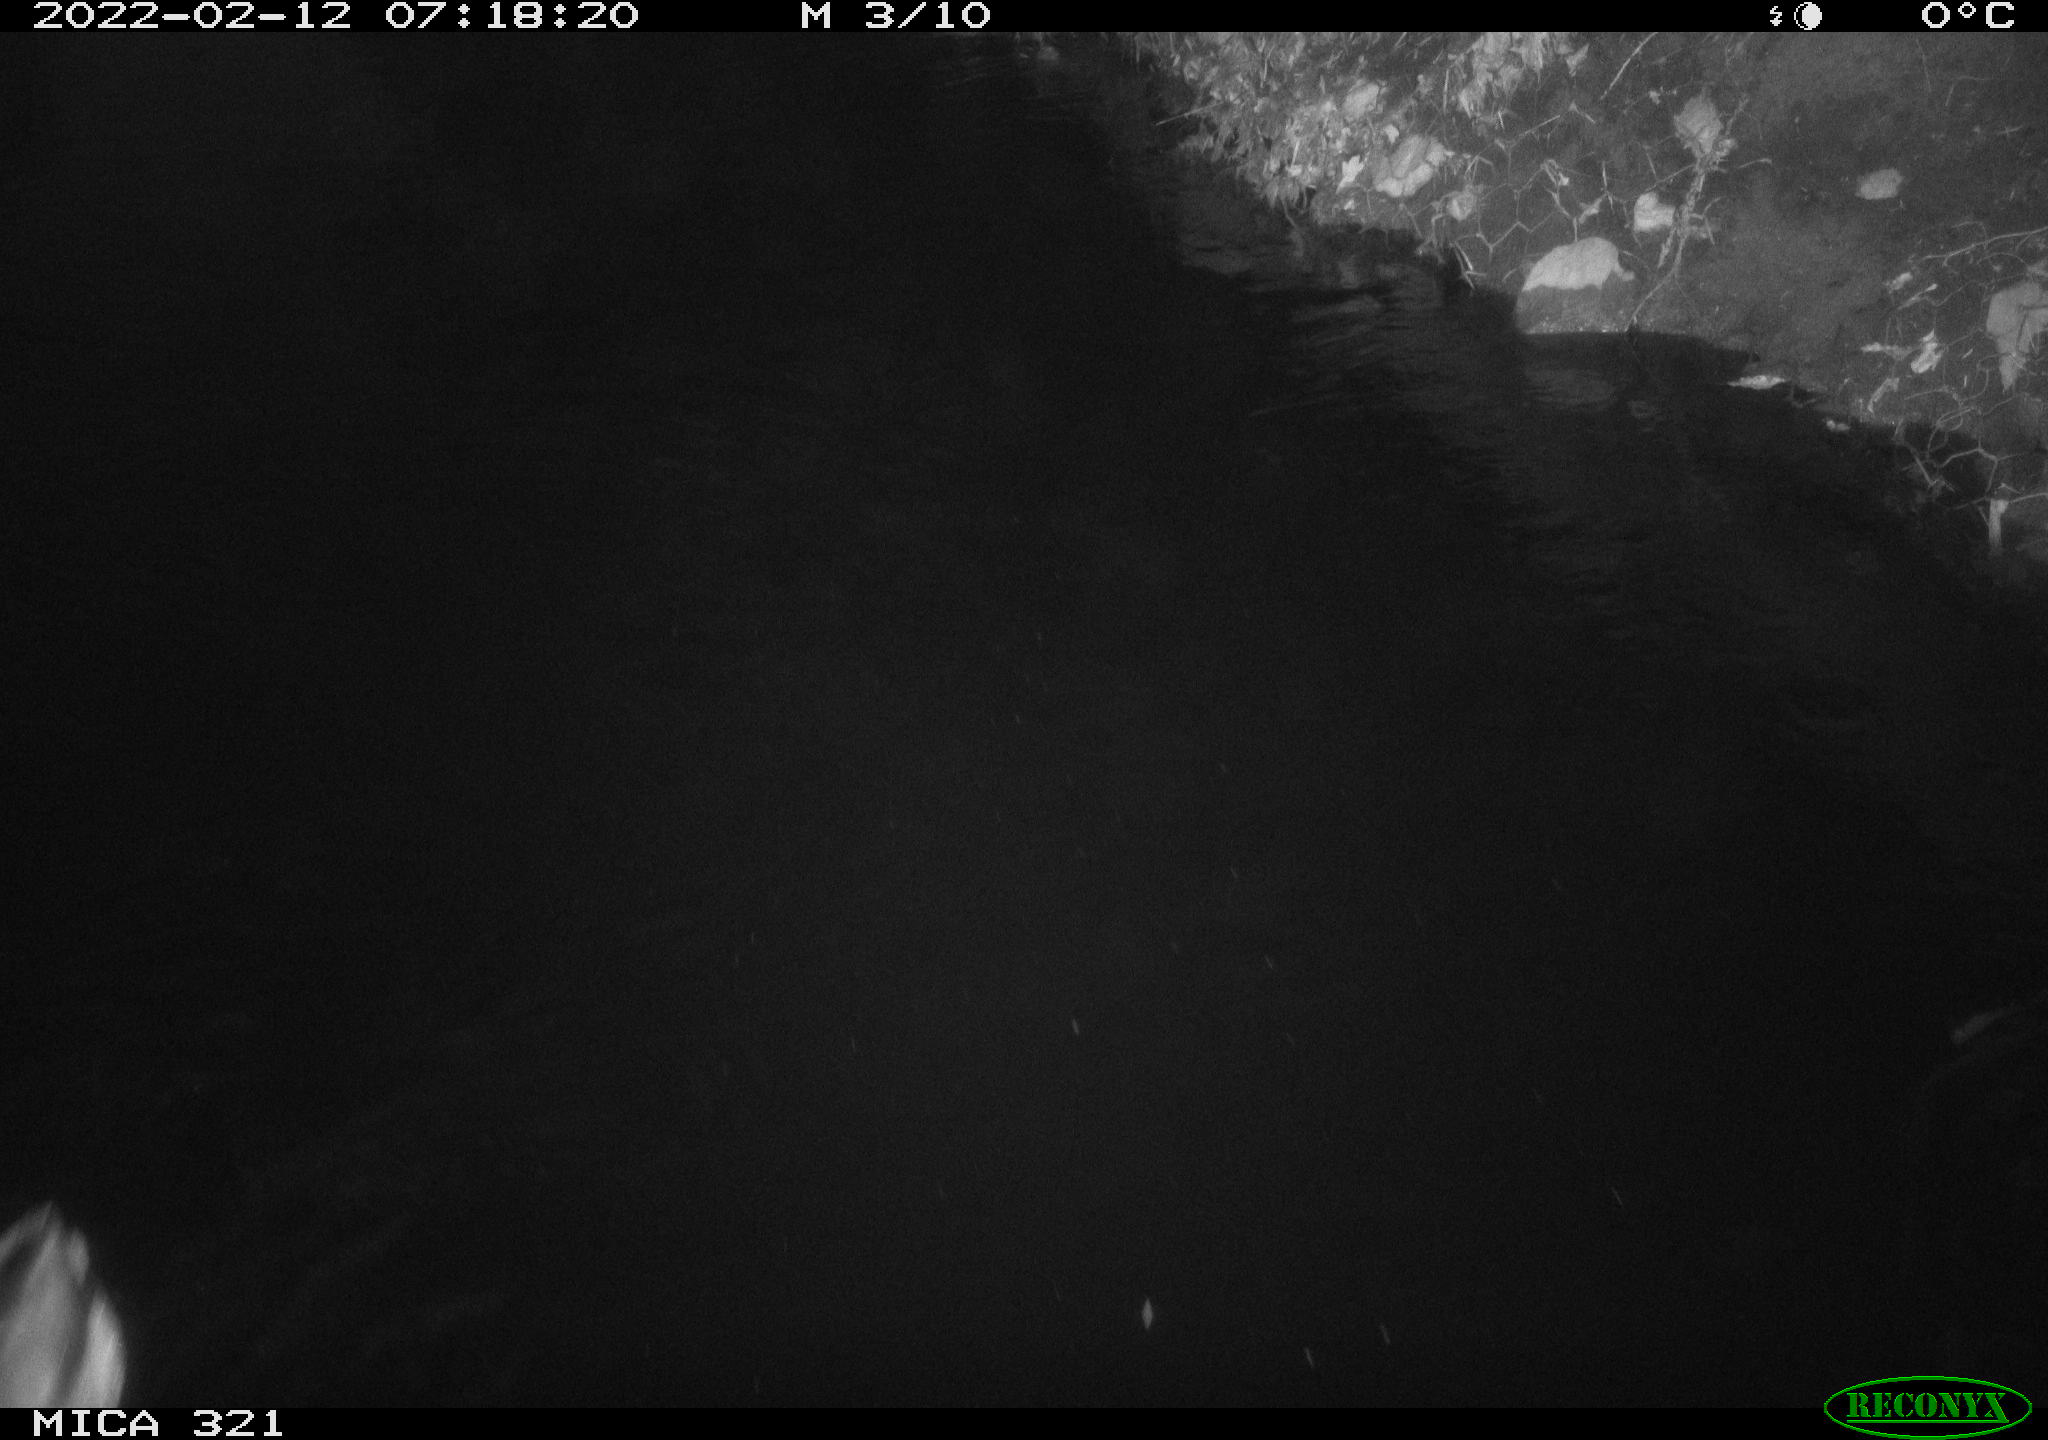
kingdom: Animalia
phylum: Chordata
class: Aves
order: Anseriformes
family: Anatidae
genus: Anas
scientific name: Anas platyrhynchos
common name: Mallard
